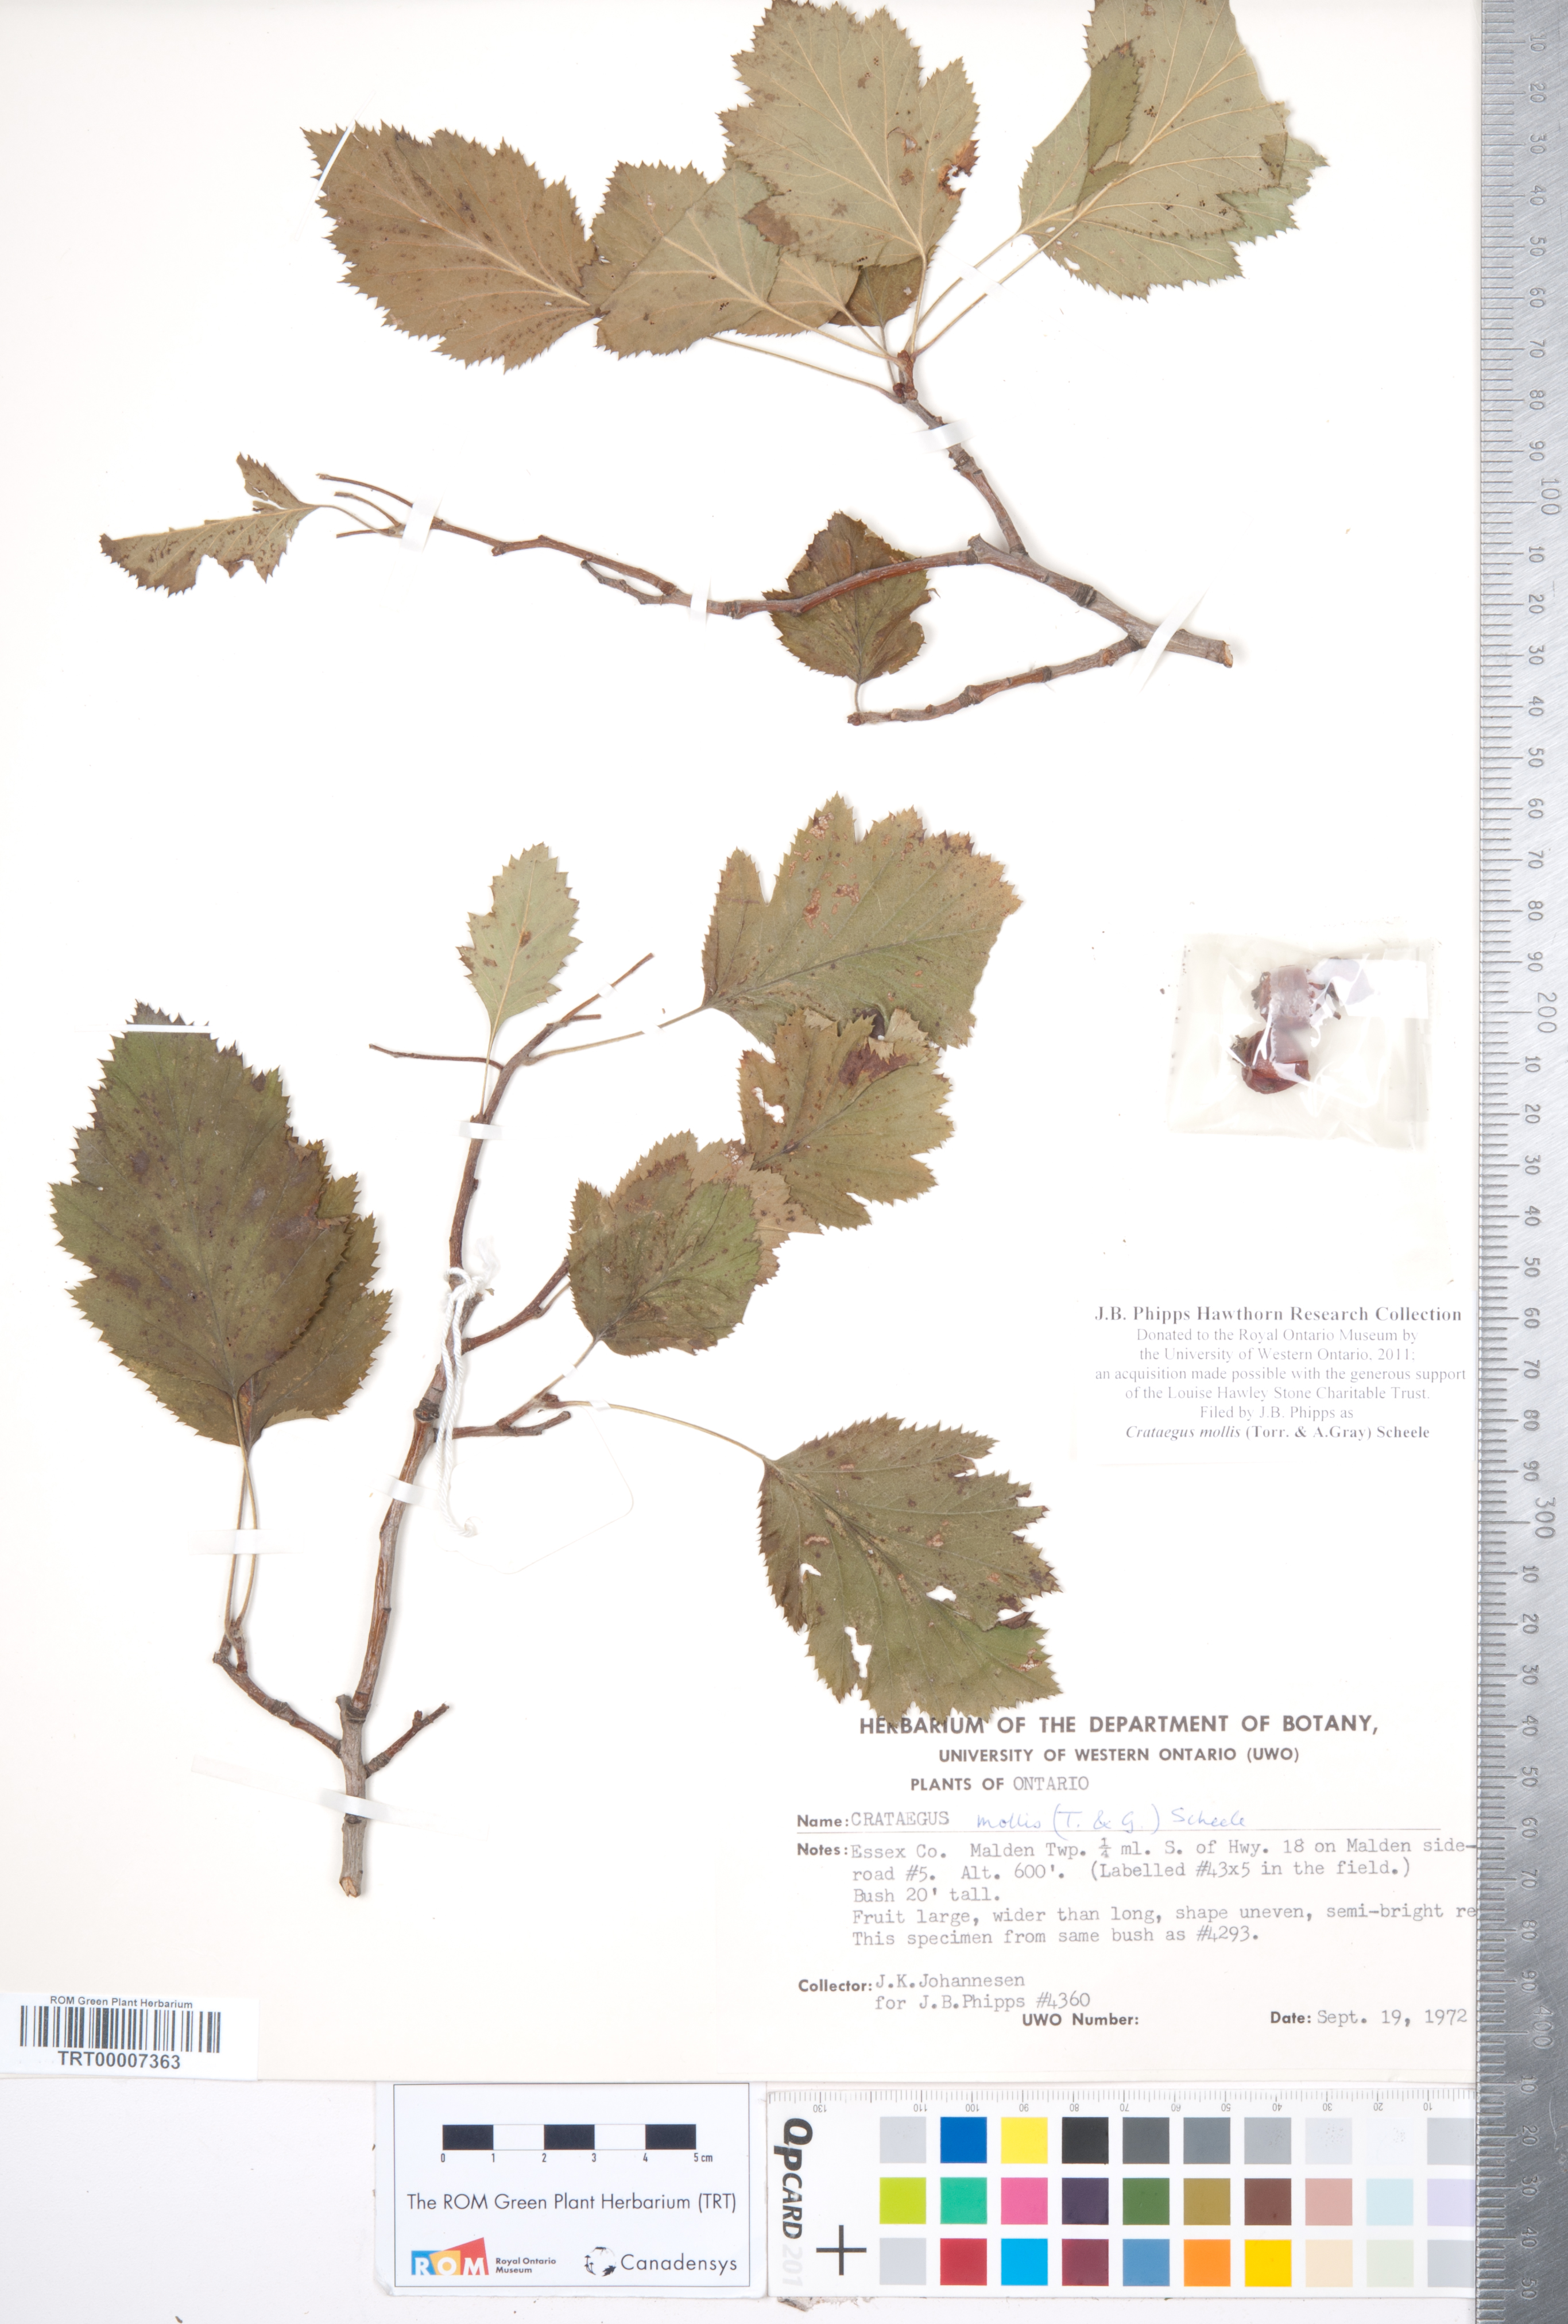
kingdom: Plantae
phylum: Tracheophyta
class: Magnoliopsida
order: Rosales
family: Rosaceae
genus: Crataegus
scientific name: Crataegus mollis
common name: Downy hawthorn
